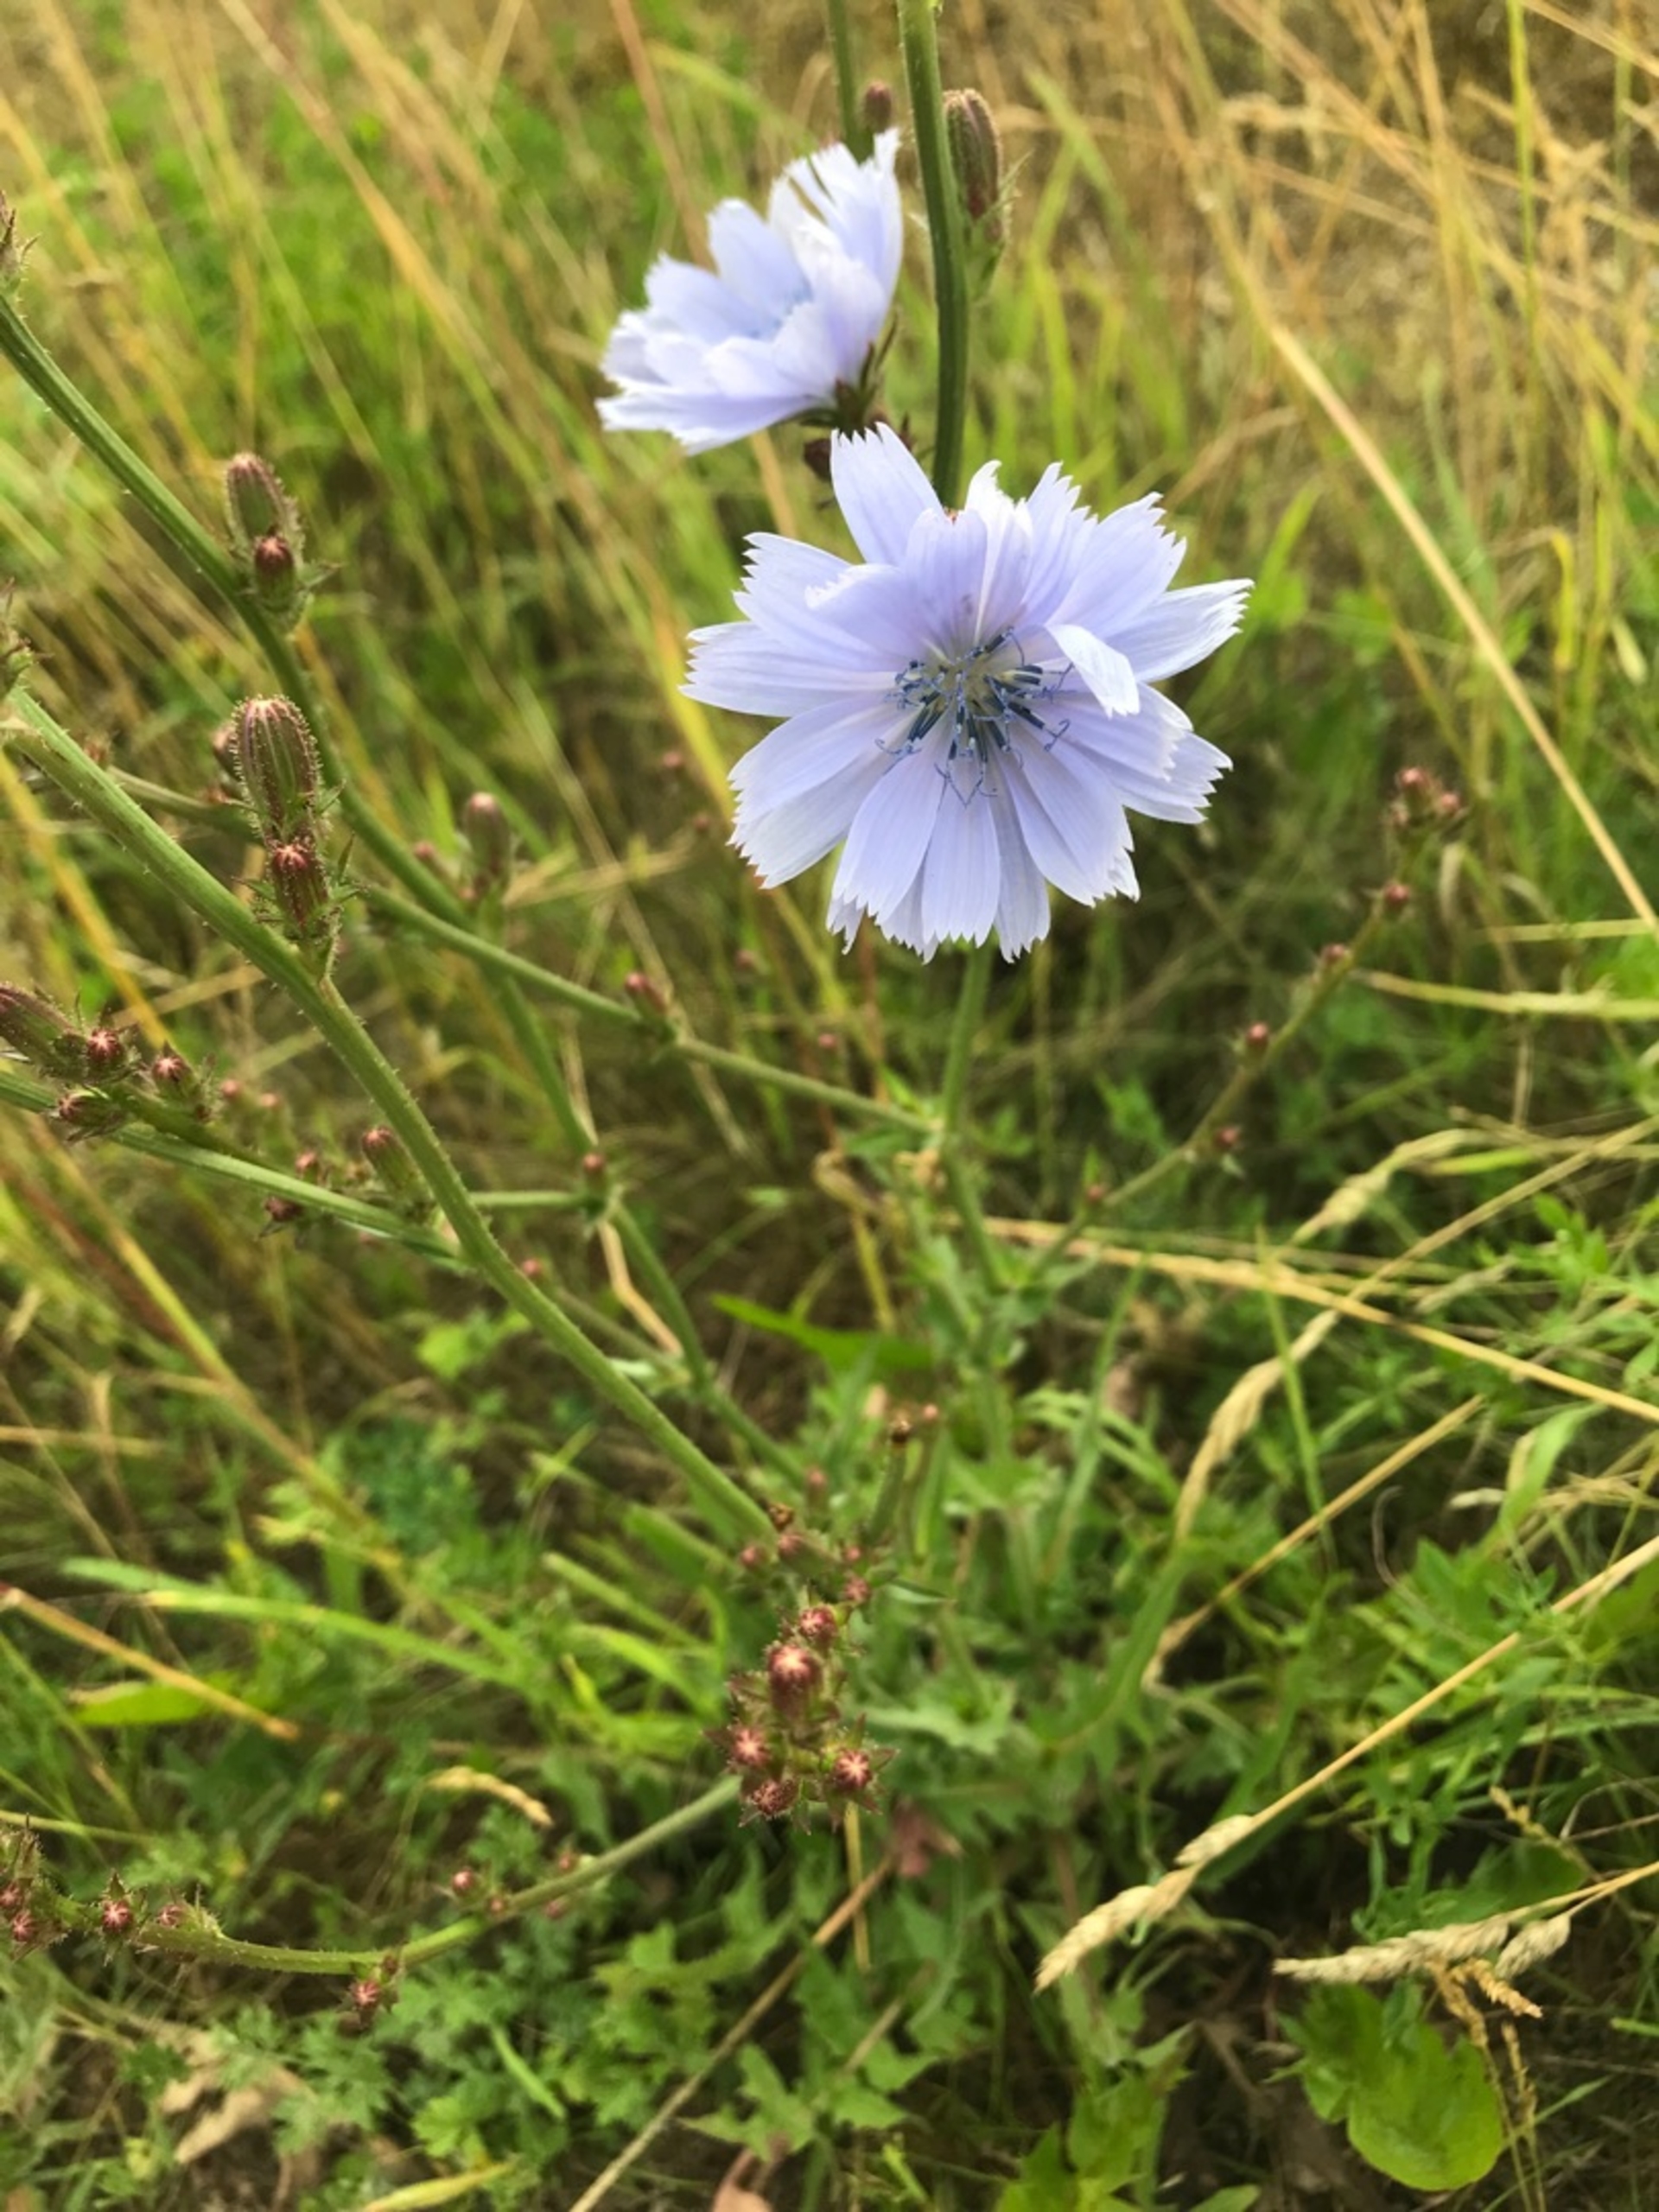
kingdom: Plantae
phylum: Tracheophyta
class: Magnoliopsida
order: Asterales
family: Asteraceae
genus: Cichorium
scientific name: Cichorium intybus
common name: Cikorie (varietet)
